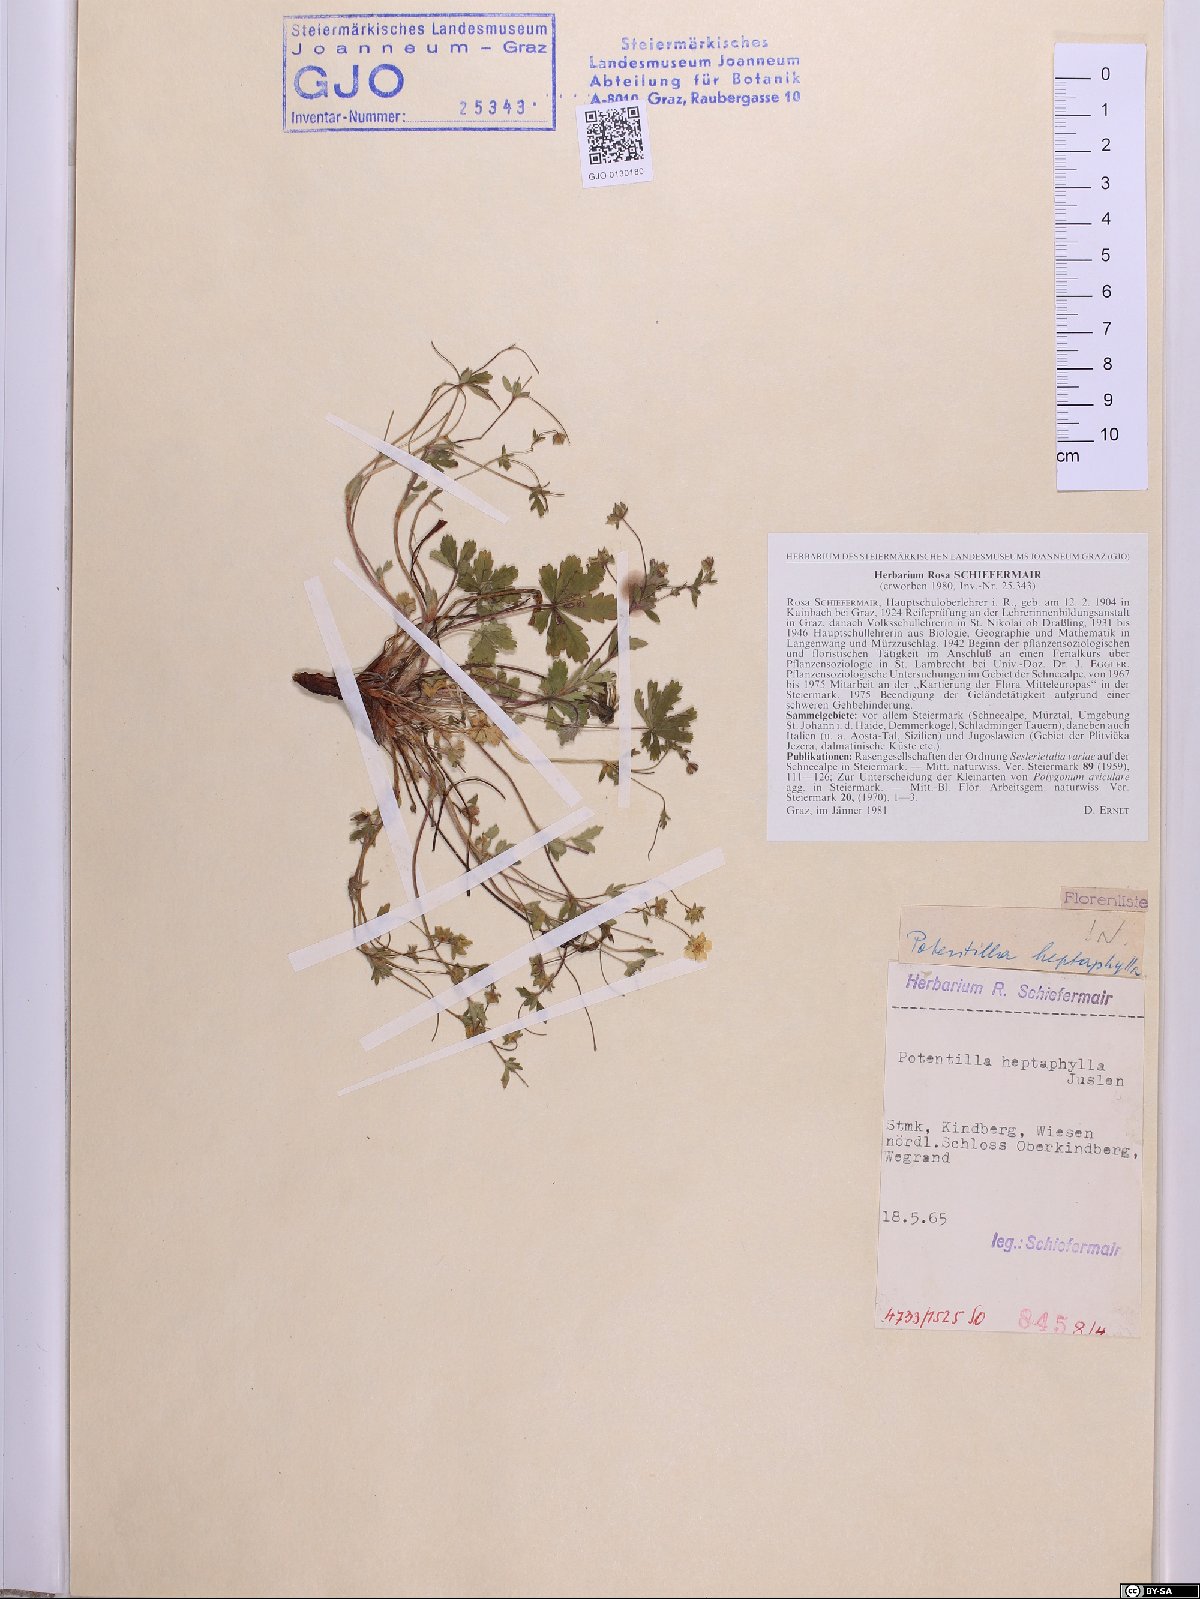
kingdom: Plantae
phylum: Tracheophyta
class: Magnoliopsida
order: Rosales
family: Rosaceae
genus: Potentilla
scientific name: Potentilla heptaphylla
